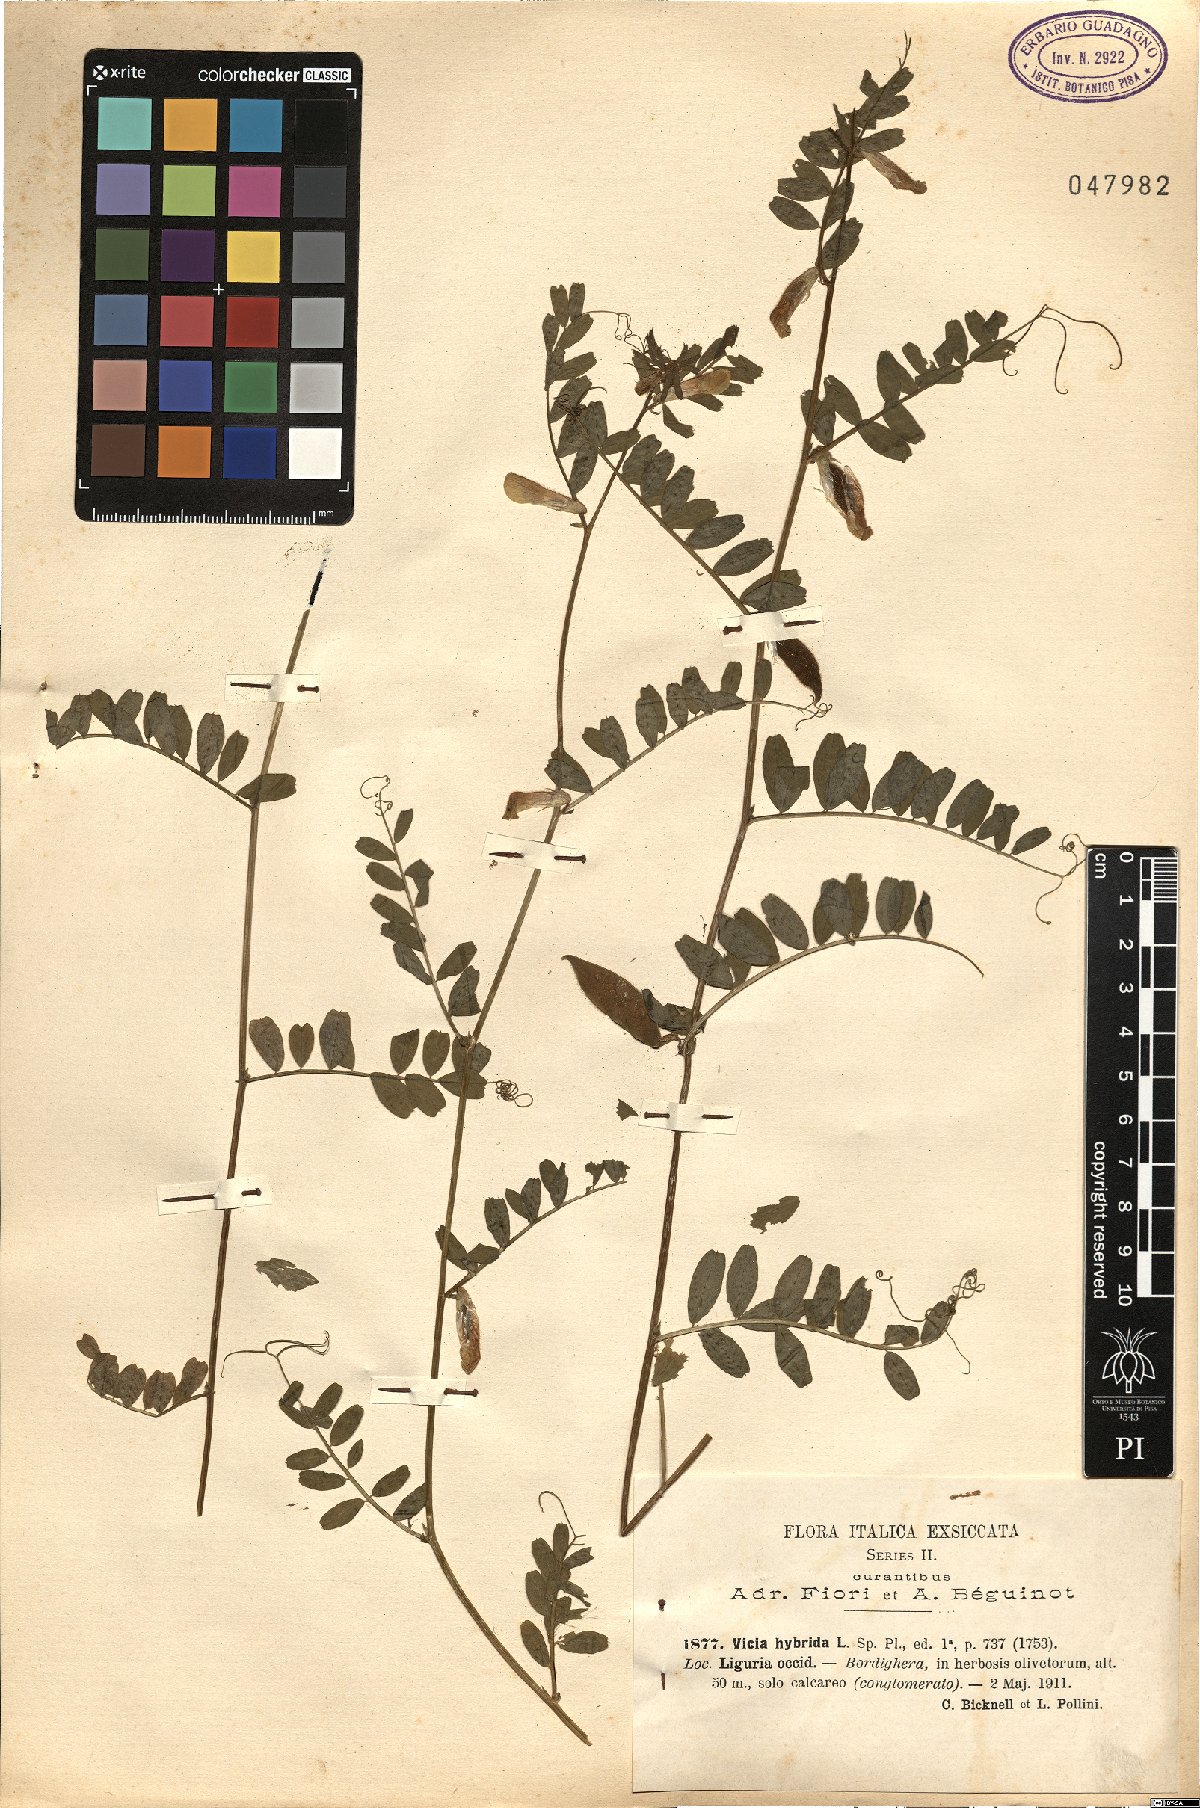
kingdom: Plantae
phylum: Tracheophyta
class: Magnoliopsida
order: Fabales
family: Fabaceae
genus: Vicia
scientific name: Vicia hybrida
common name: Hairy yellow vetch
